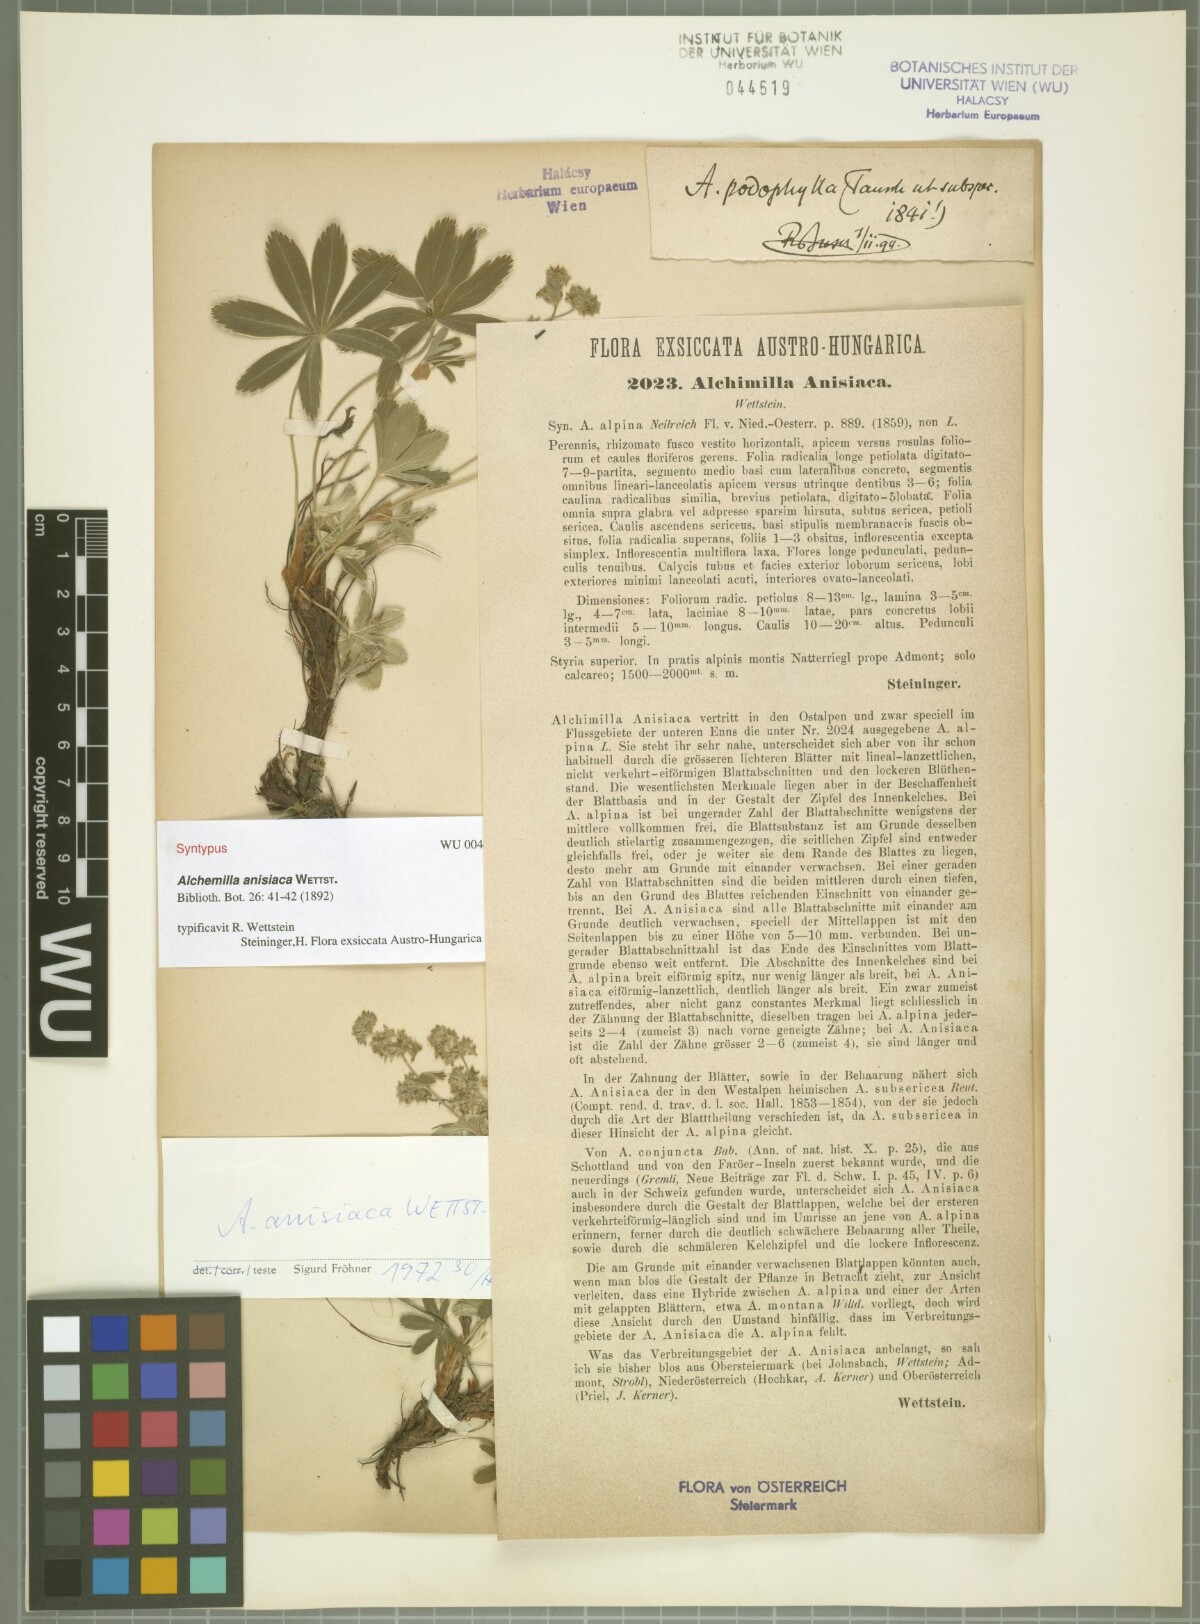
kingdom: Plantae
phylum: Tracheophyta
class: Magnoliopsida
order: Rosales
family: Rosaceae
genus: Alchemilla
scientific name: Alchemilla anisiaca
